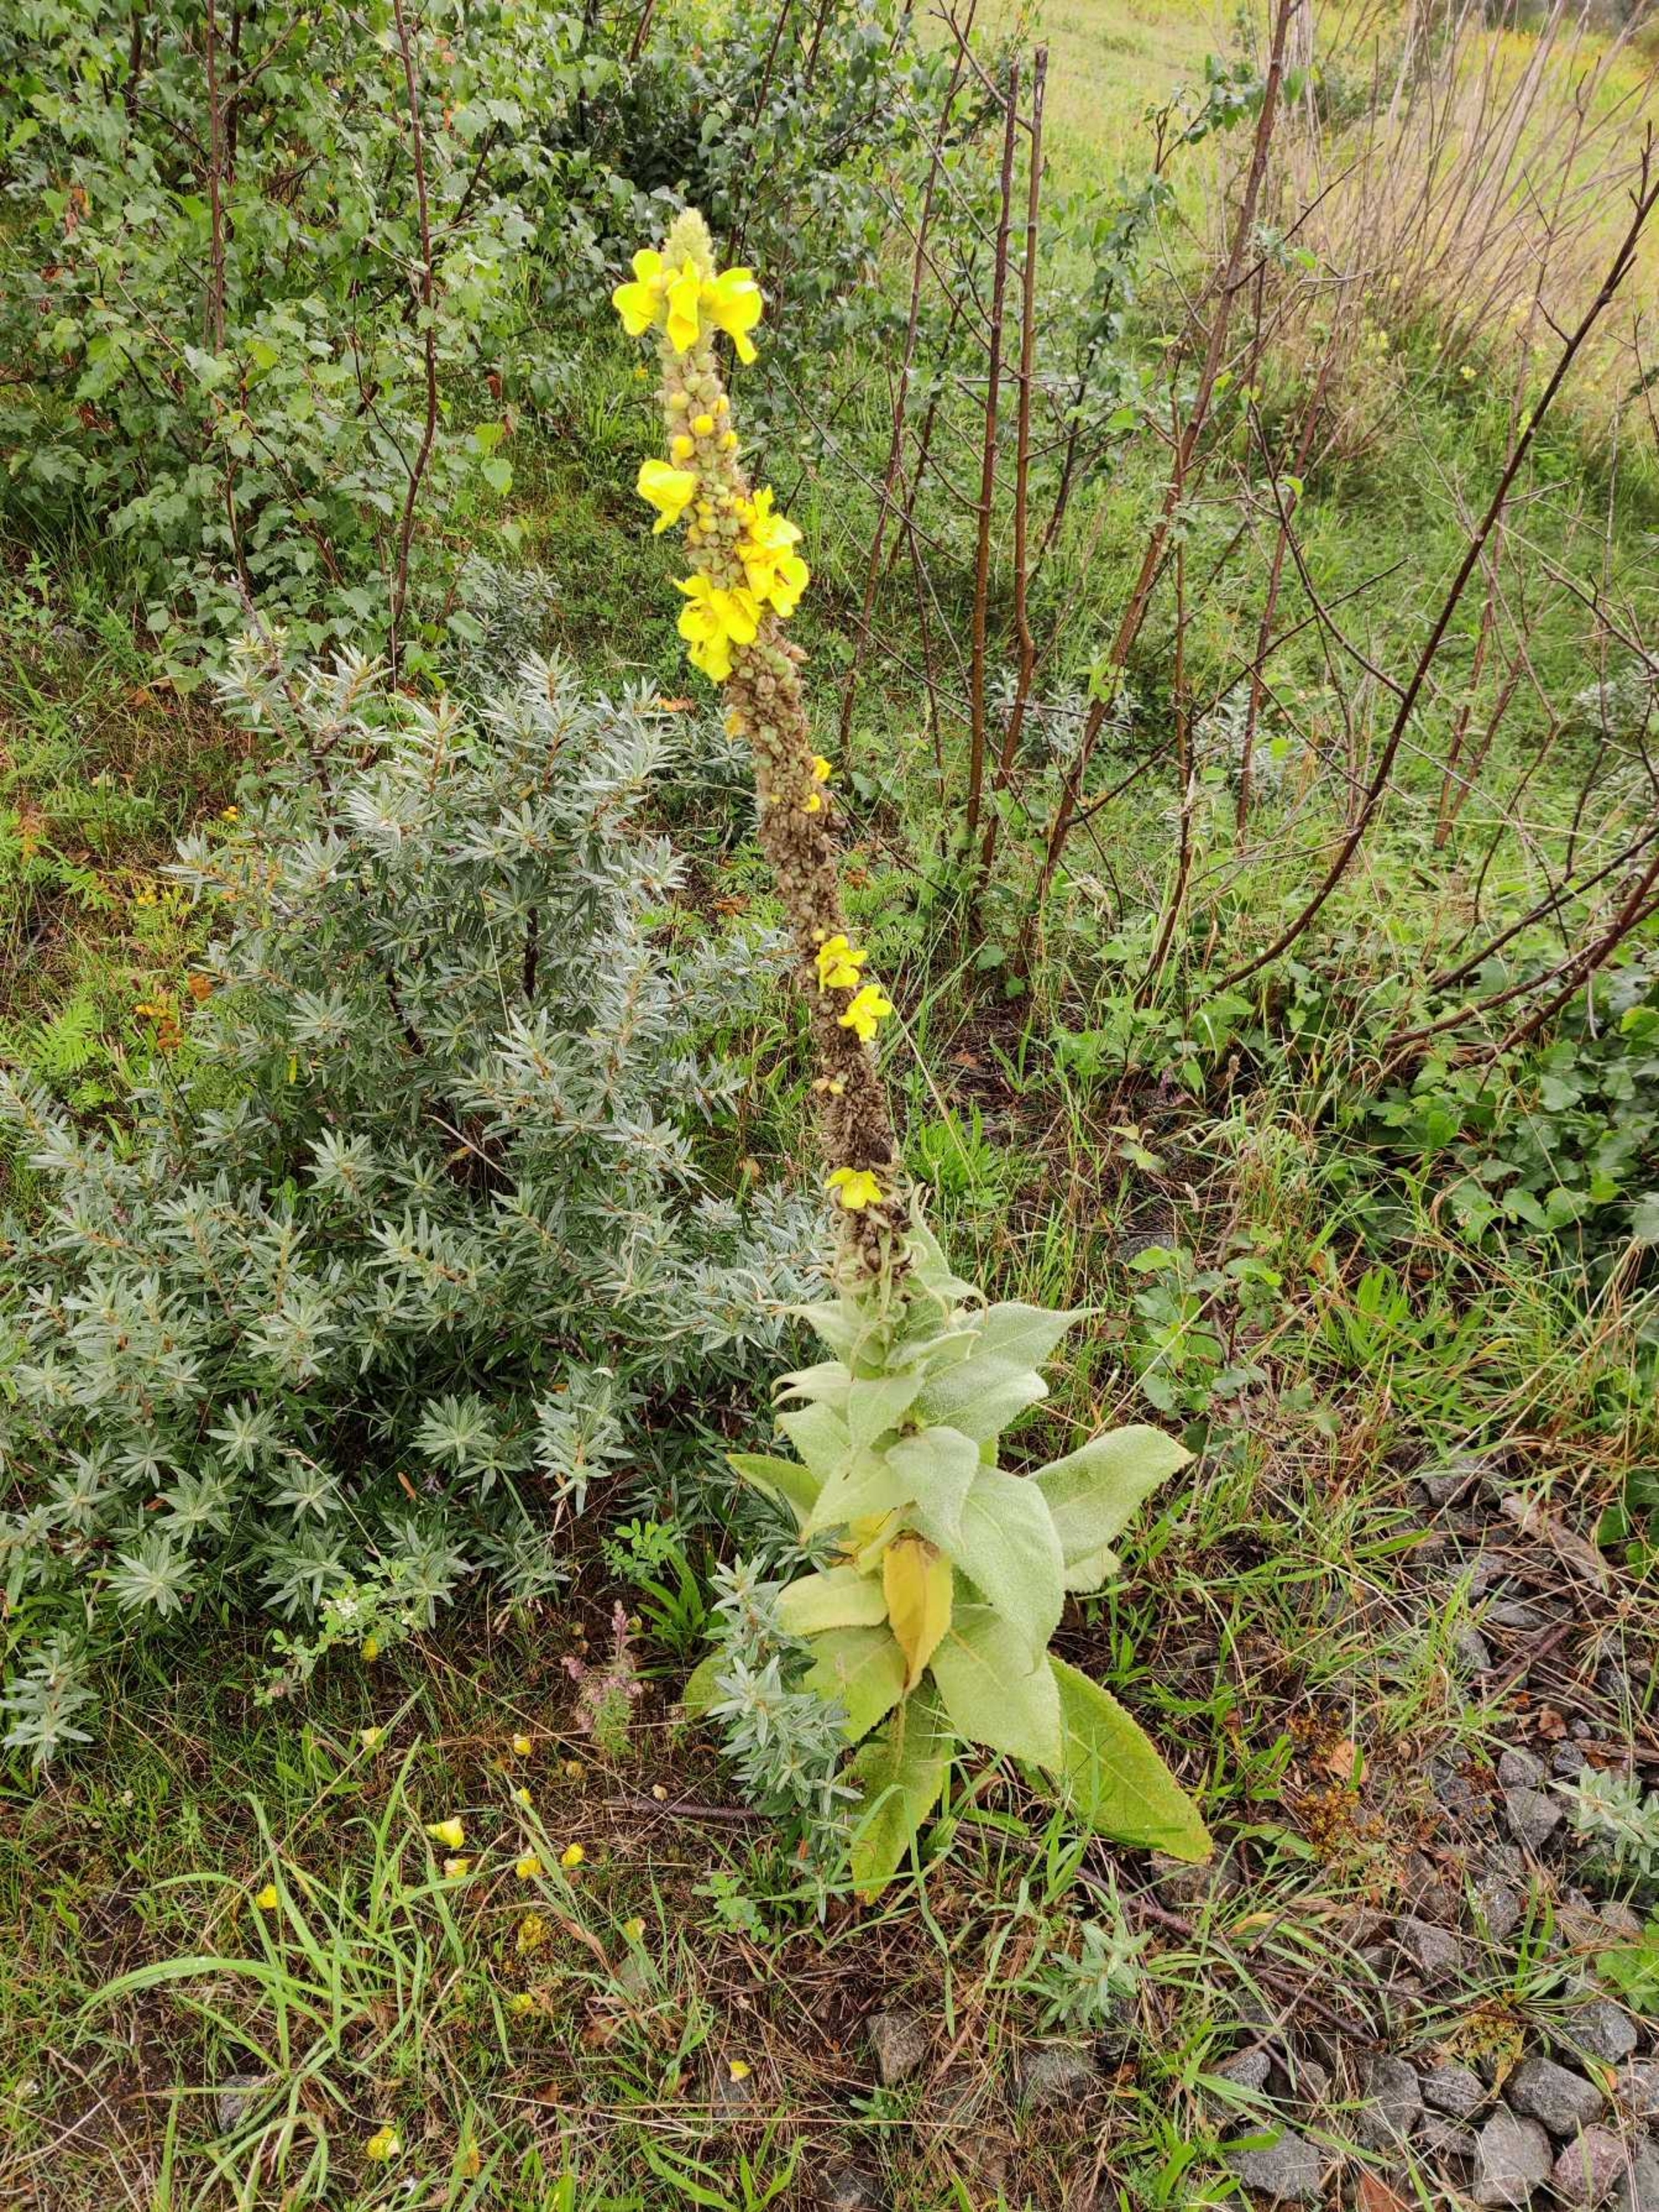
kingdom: Plantae
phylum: Tracheophyta
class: Magnoliopsida
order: Lamiales
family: Scrophulariaceae
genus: Verbascum
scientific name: Verbascum densiflorum
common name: Uldbladet kongelys
